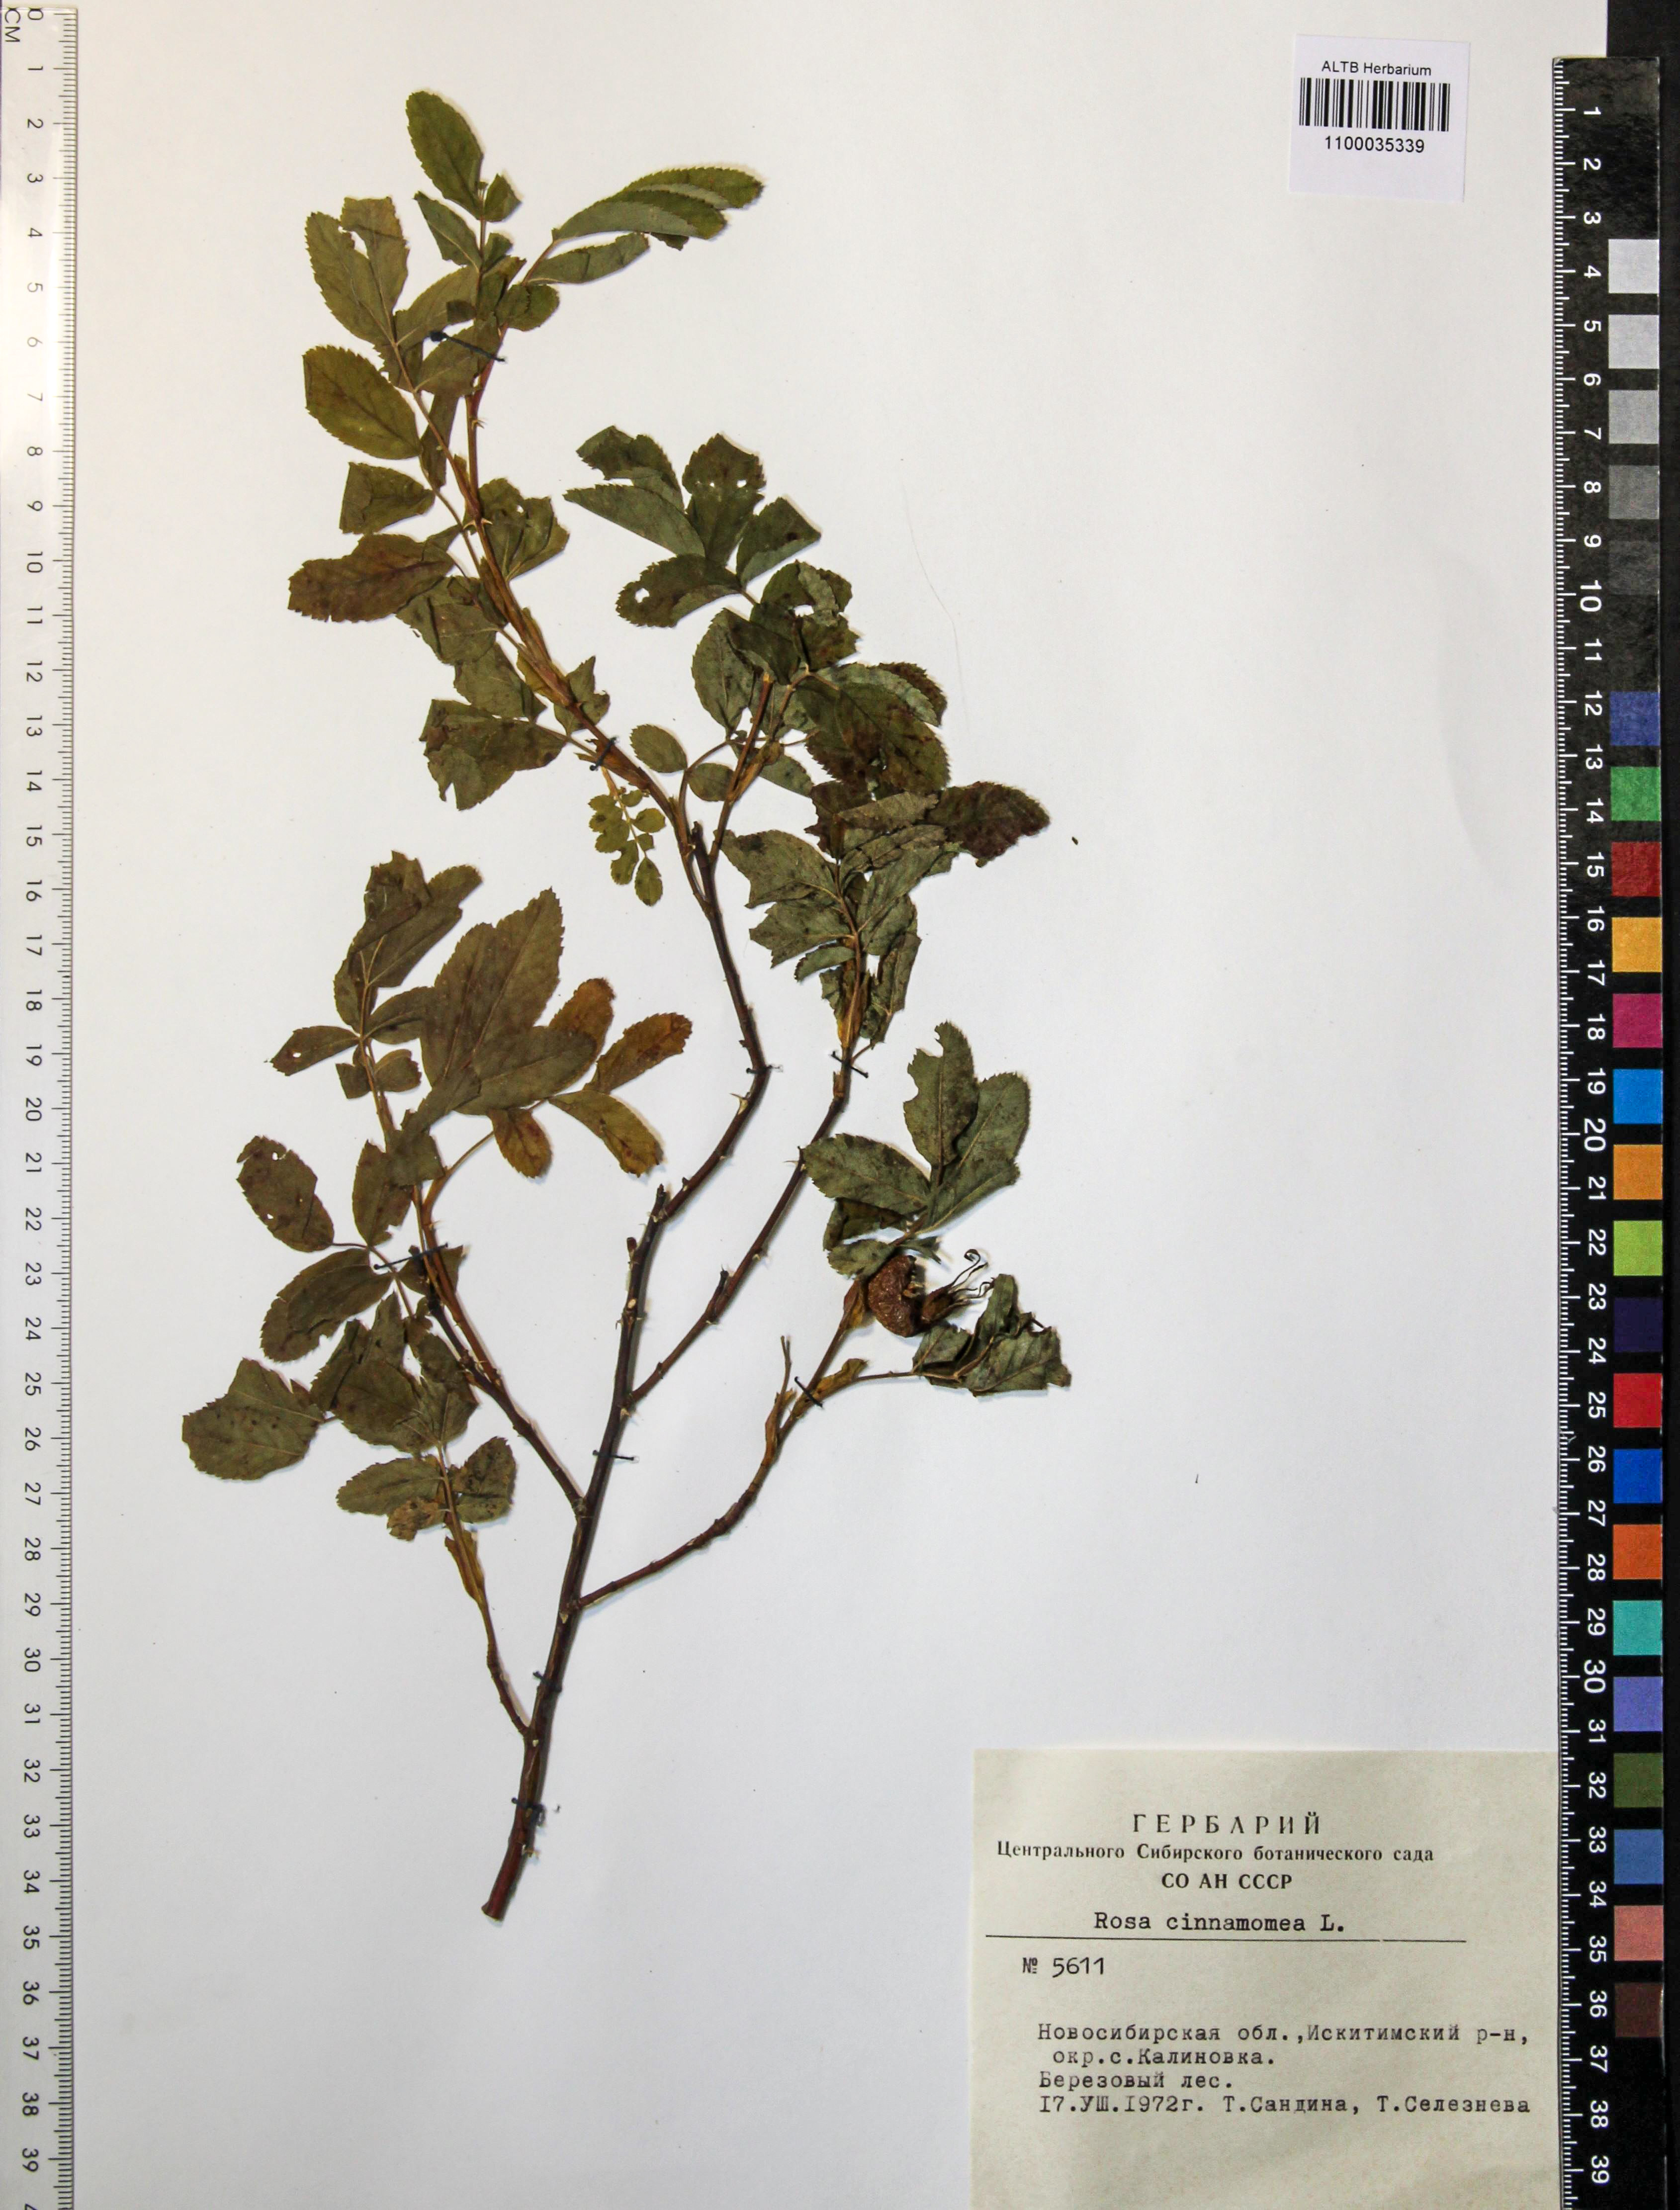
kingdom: Plantae
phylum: Tracheophyta
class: Magnoliopsida
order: Rosales
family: Rosaceae
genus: Rosa
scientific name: Rosa pendulina
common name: Alpine rose
